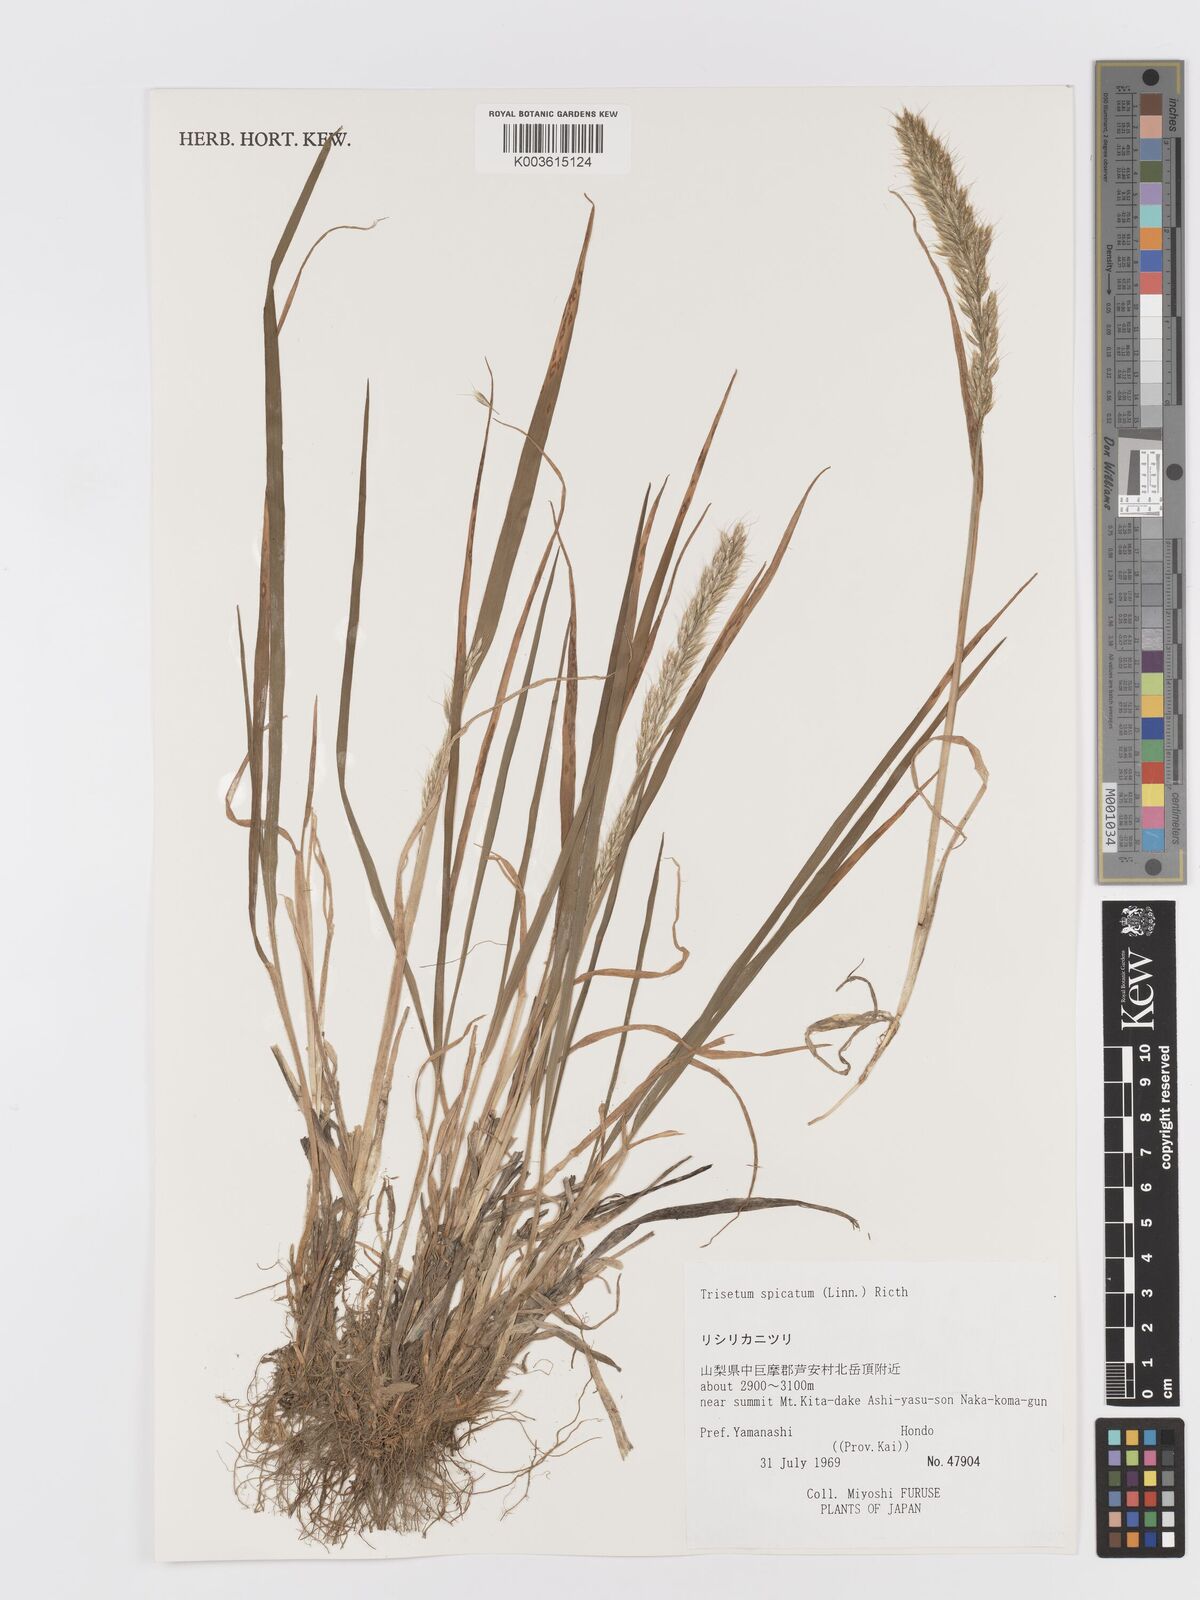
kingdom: Plantae
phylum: Tracheophyta
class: Liliopsida
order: Poales
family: Poaceae
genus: Koeleria
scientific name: Koeleria spicata
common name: Mountain trisetum
